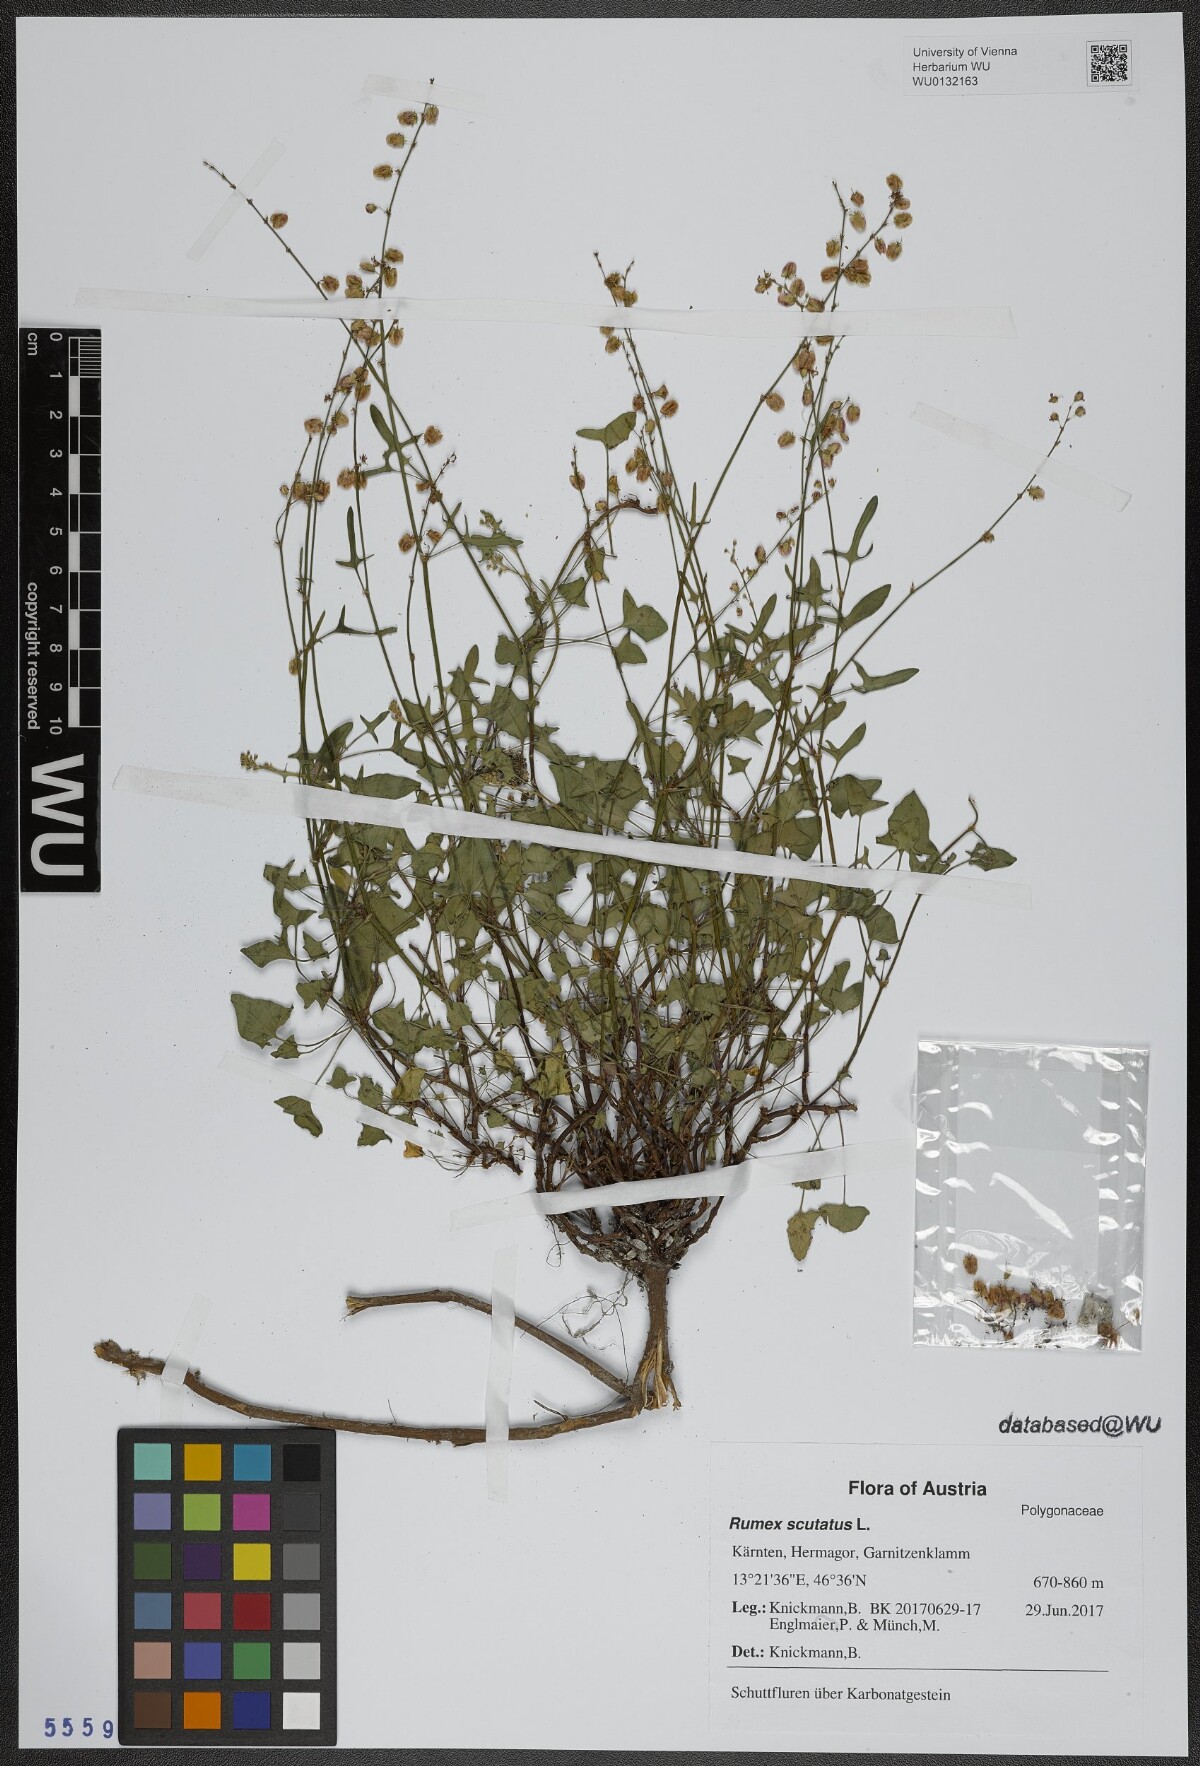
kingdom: Plantae
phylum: Tracheophyta
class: Magnoliopsida
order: Caryophyllales
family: Polygonaceae
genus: Rumex
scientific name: Rumex scutatus
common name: French sorrel
